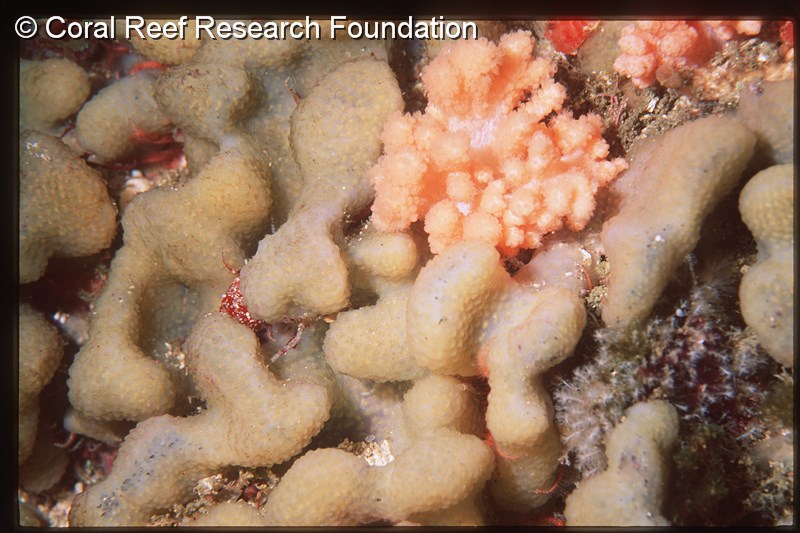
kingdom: Animalia
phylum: Chordata
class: Ascidiacea
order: Aplousobranchia
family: Polycitoridae
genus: Eudistoma
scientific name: Eudistoma
